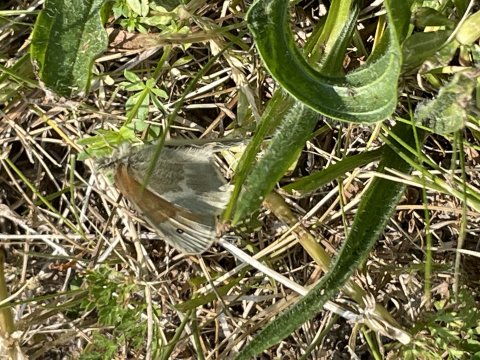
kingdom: Animalia
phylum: Arthropoda
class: Insecta
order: Lepidoptera
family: Nymphalidae
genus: Coenonympha
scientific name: Coenonympha tullia
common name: Large Heath
